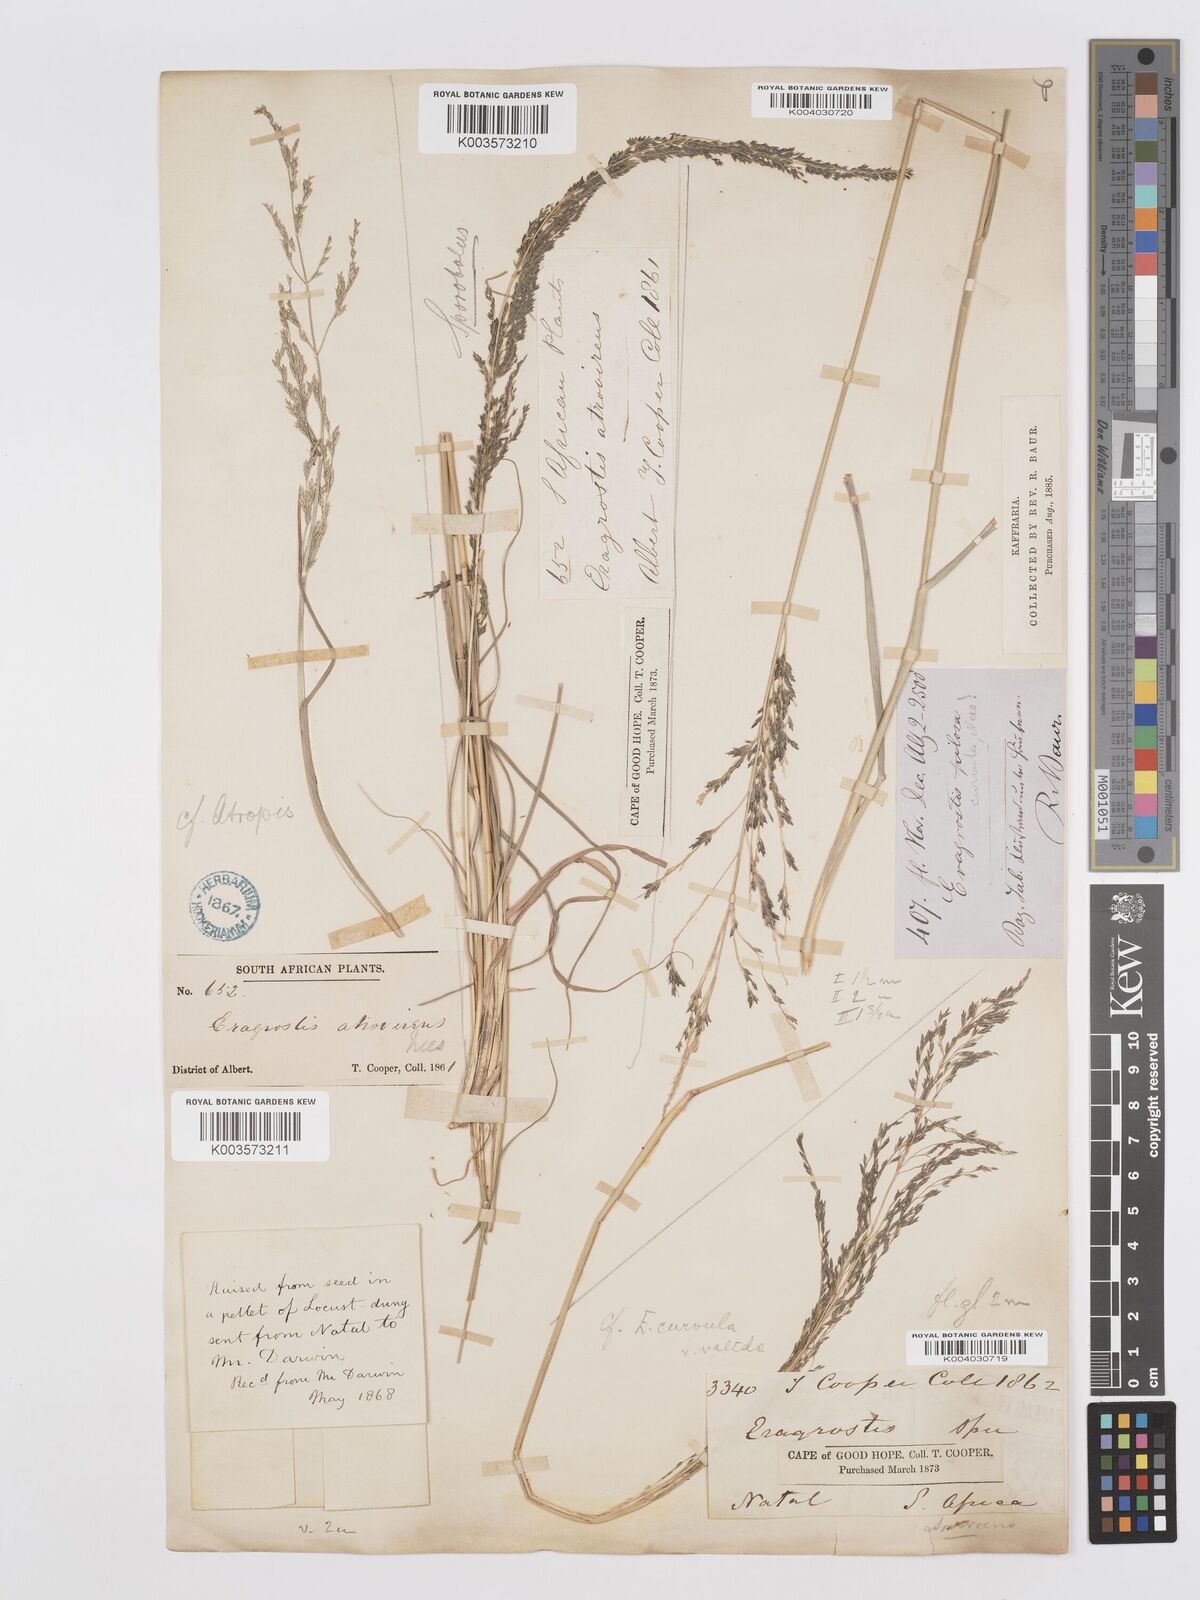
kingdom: Plantae
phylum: Tracheophyta
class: Liliopsida
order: Poales
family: Poaceae
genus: Eragrostis
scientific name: Eragrostis curvula
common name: African love-grass
